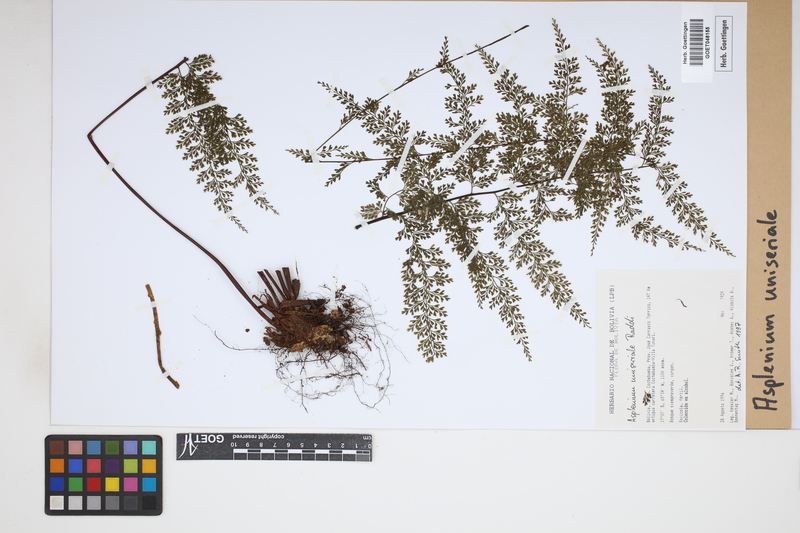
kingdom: Plantae
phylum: Tracheophyta
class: Polypodiopsida
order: Polypodiales
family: Aspleniaceae
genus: Asplenium
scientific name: Asplenium uniseriale
